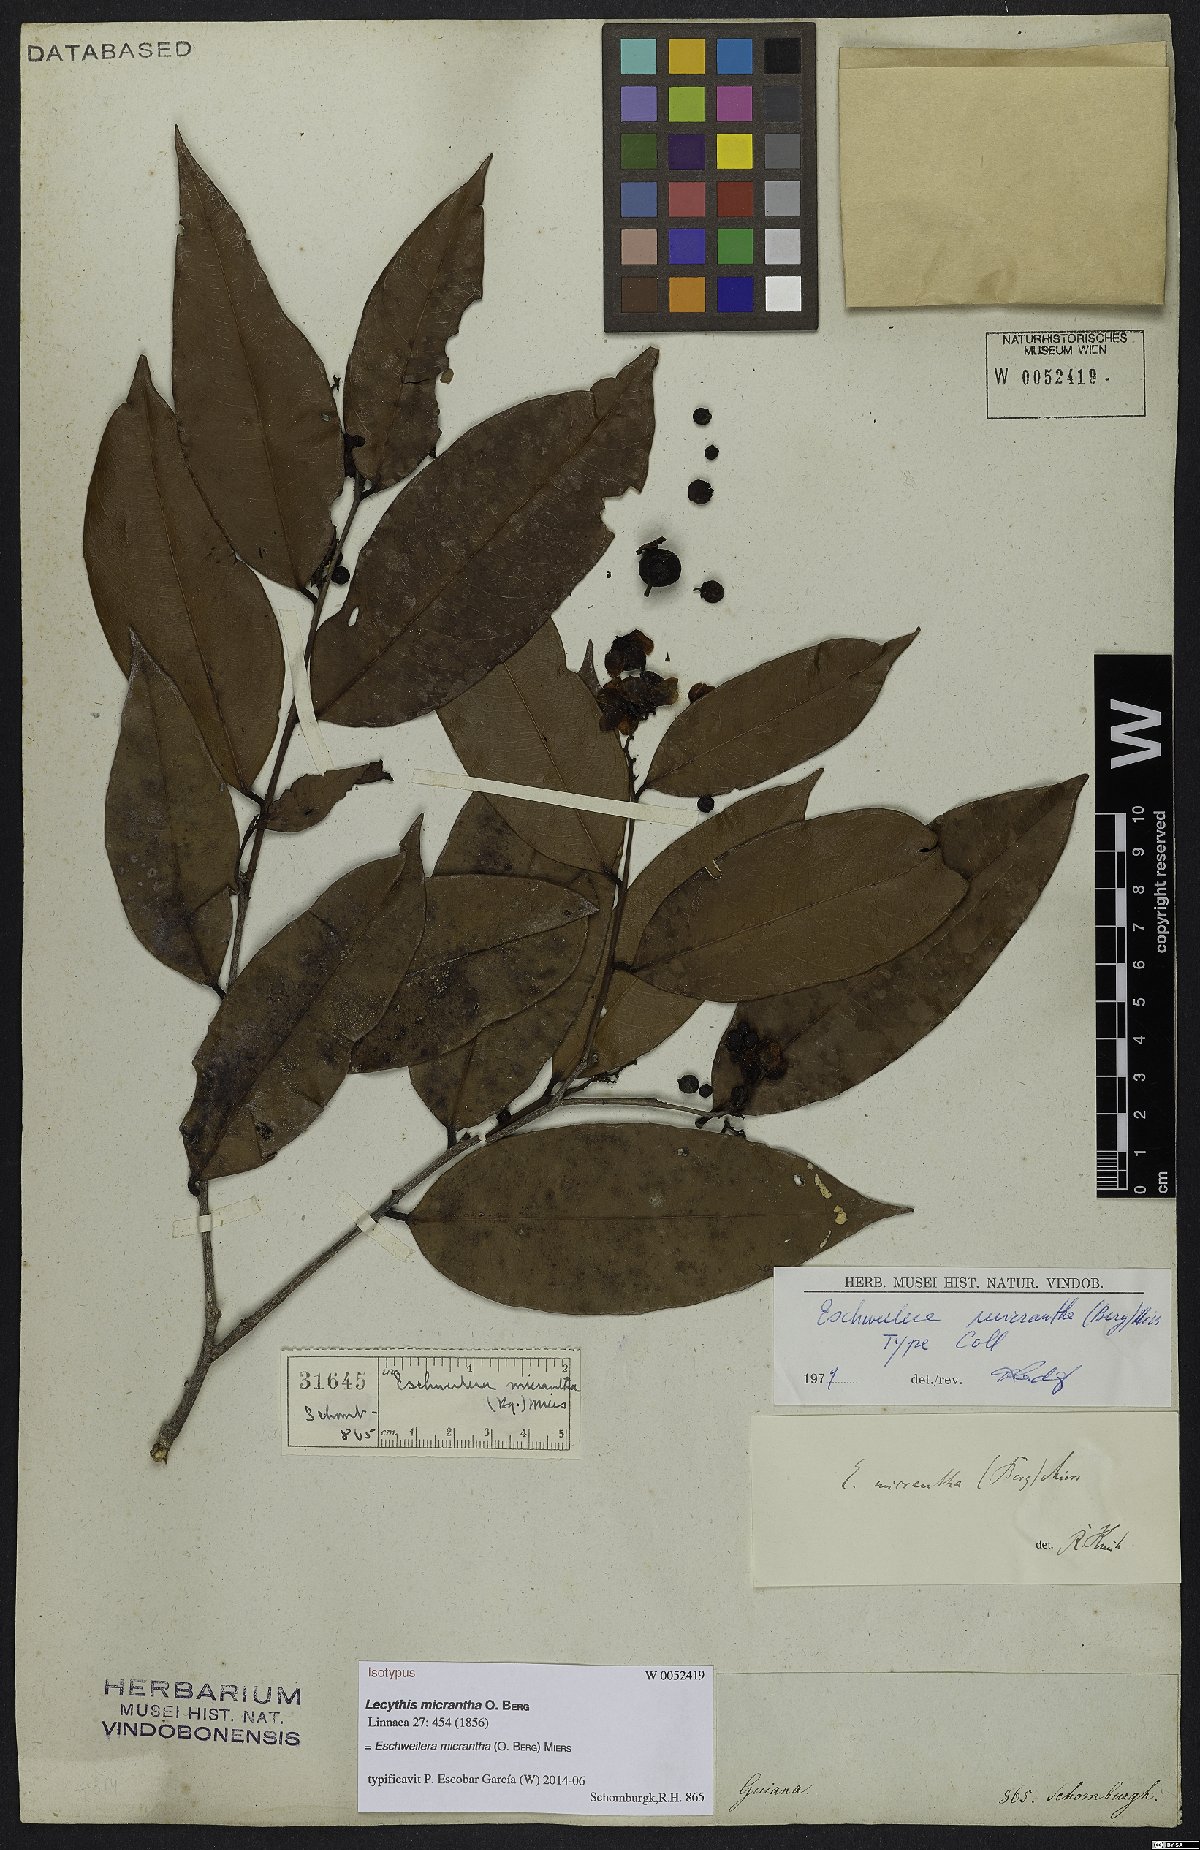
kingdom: Plantae
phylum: Tracheophyta
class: Magnoliopsida
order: Ericales
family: Lecythidaceae
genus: Eschweilera
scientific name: Eschweilera micrantha
